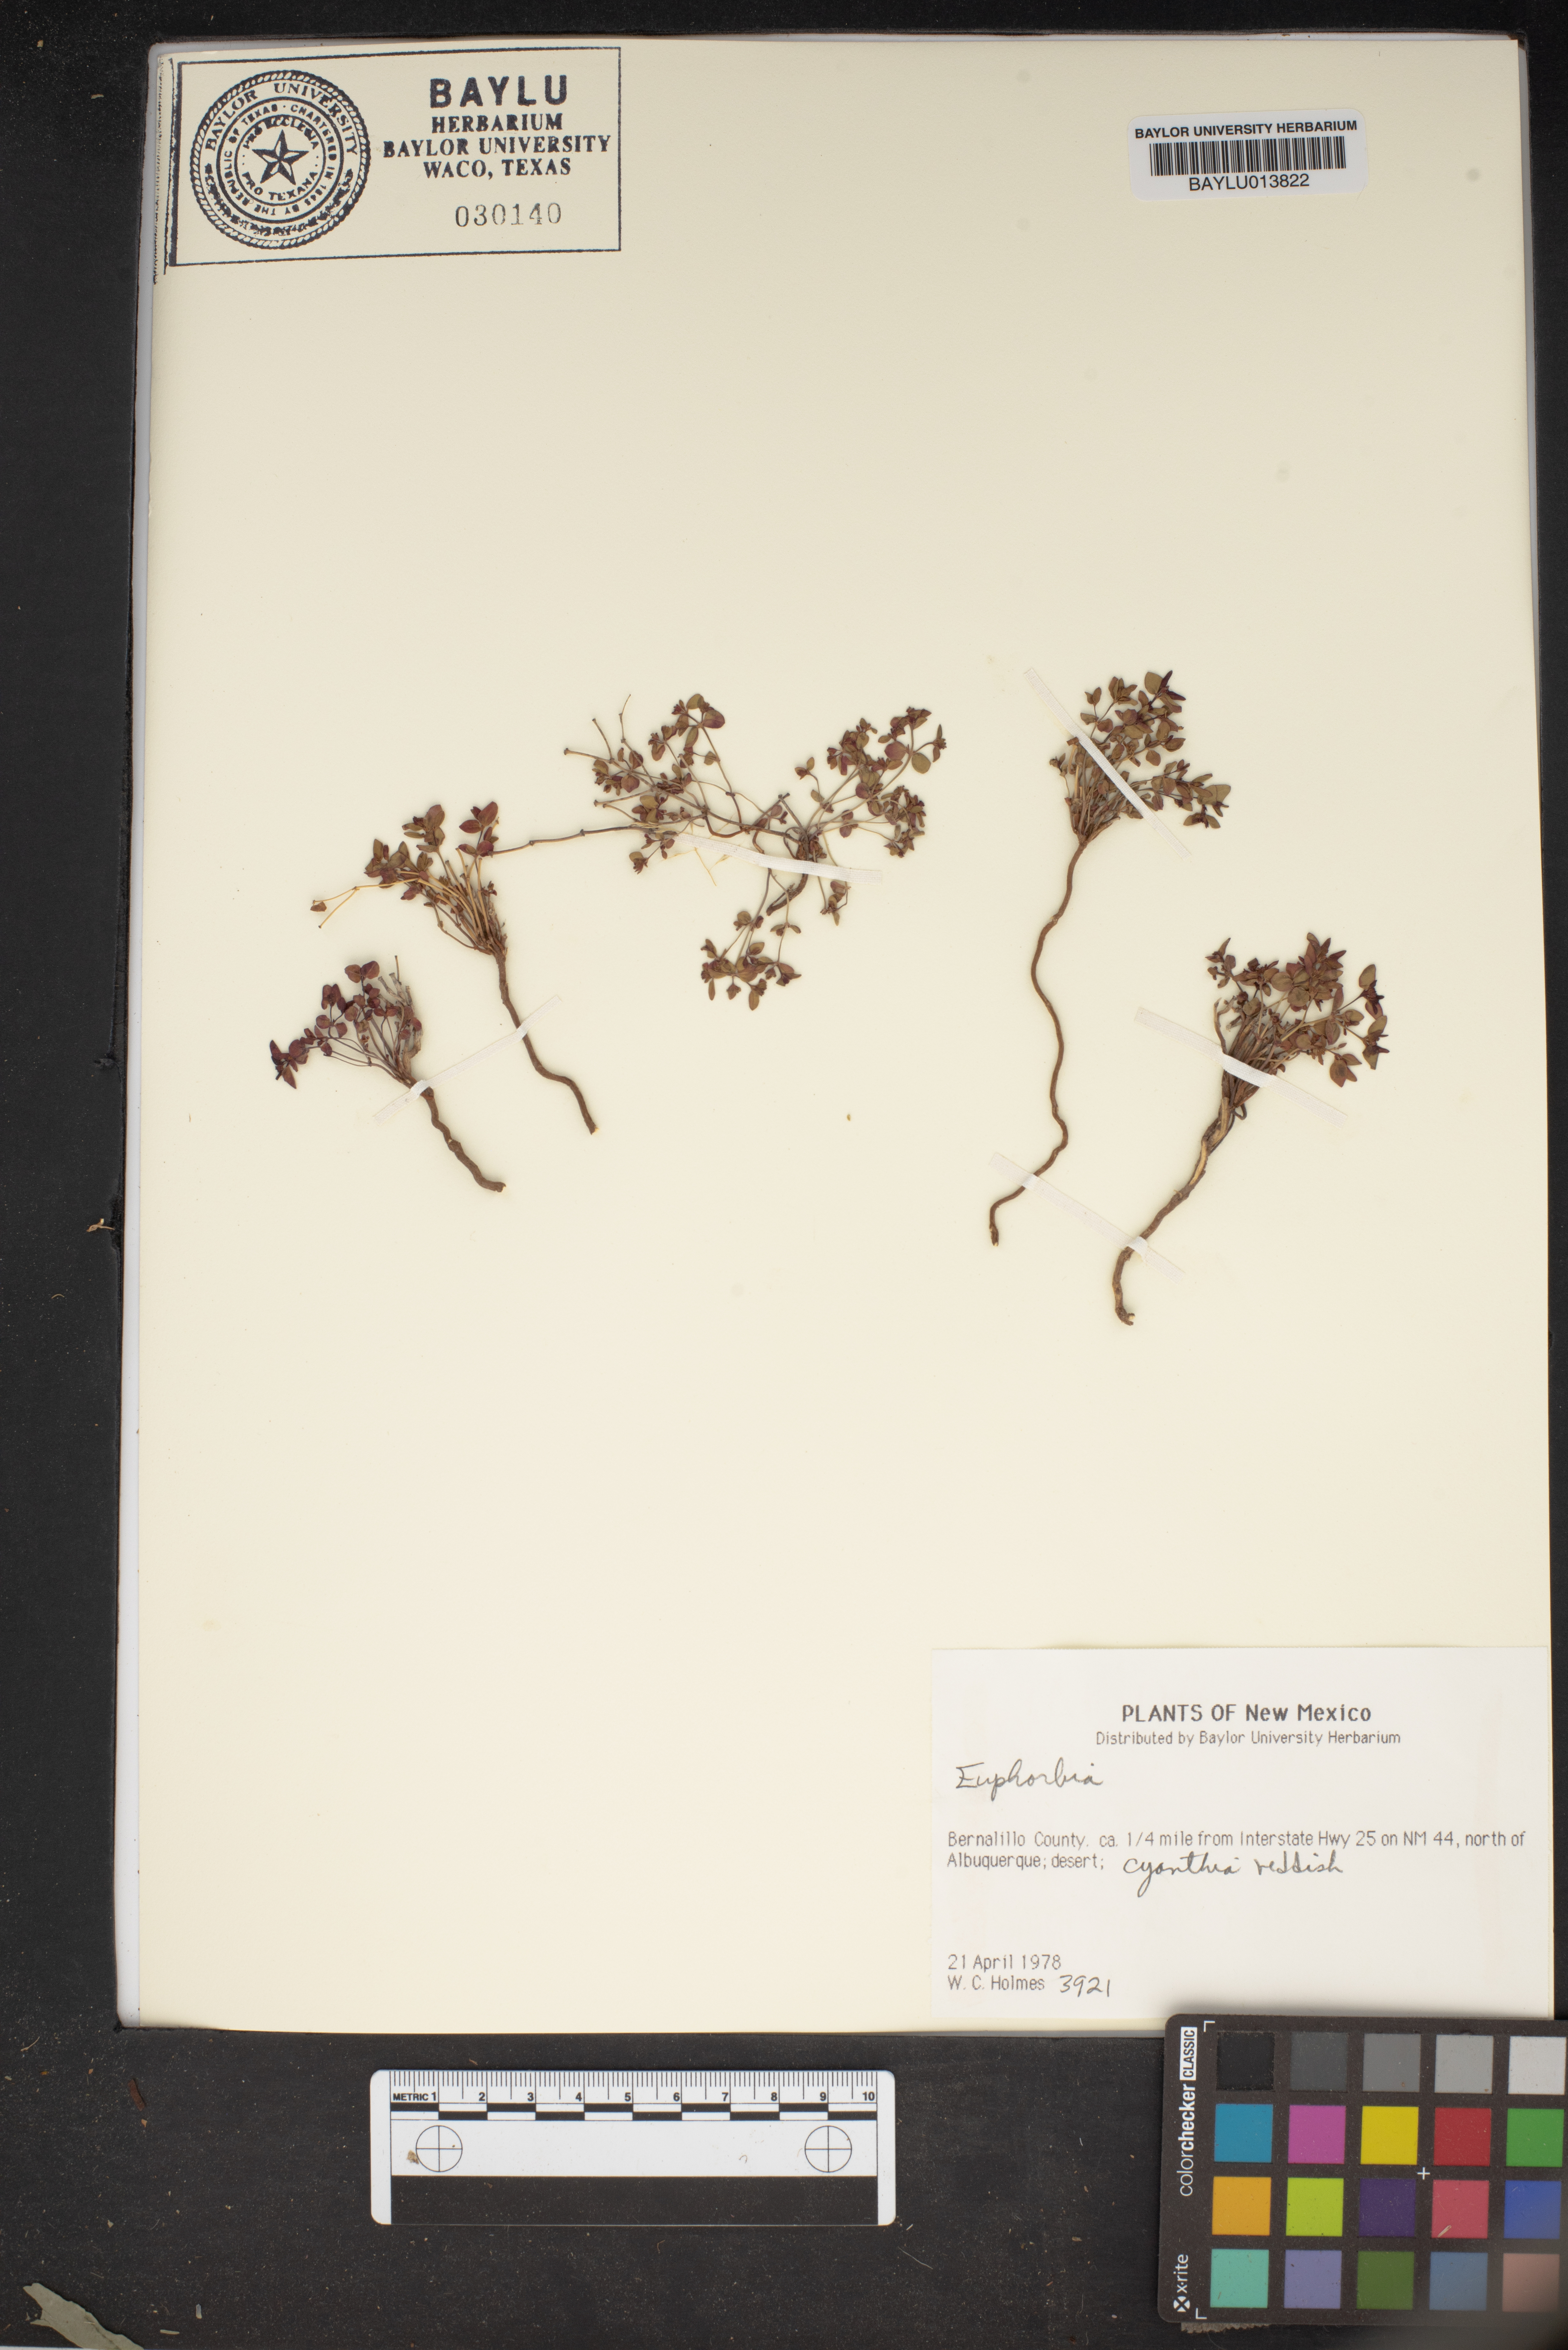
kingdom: Plantae
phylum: Tracheophyta
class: Magnoliopsida
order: Malpighiales
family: Euphorbiaceae
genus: Euphorbia
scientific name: Euphorbia
